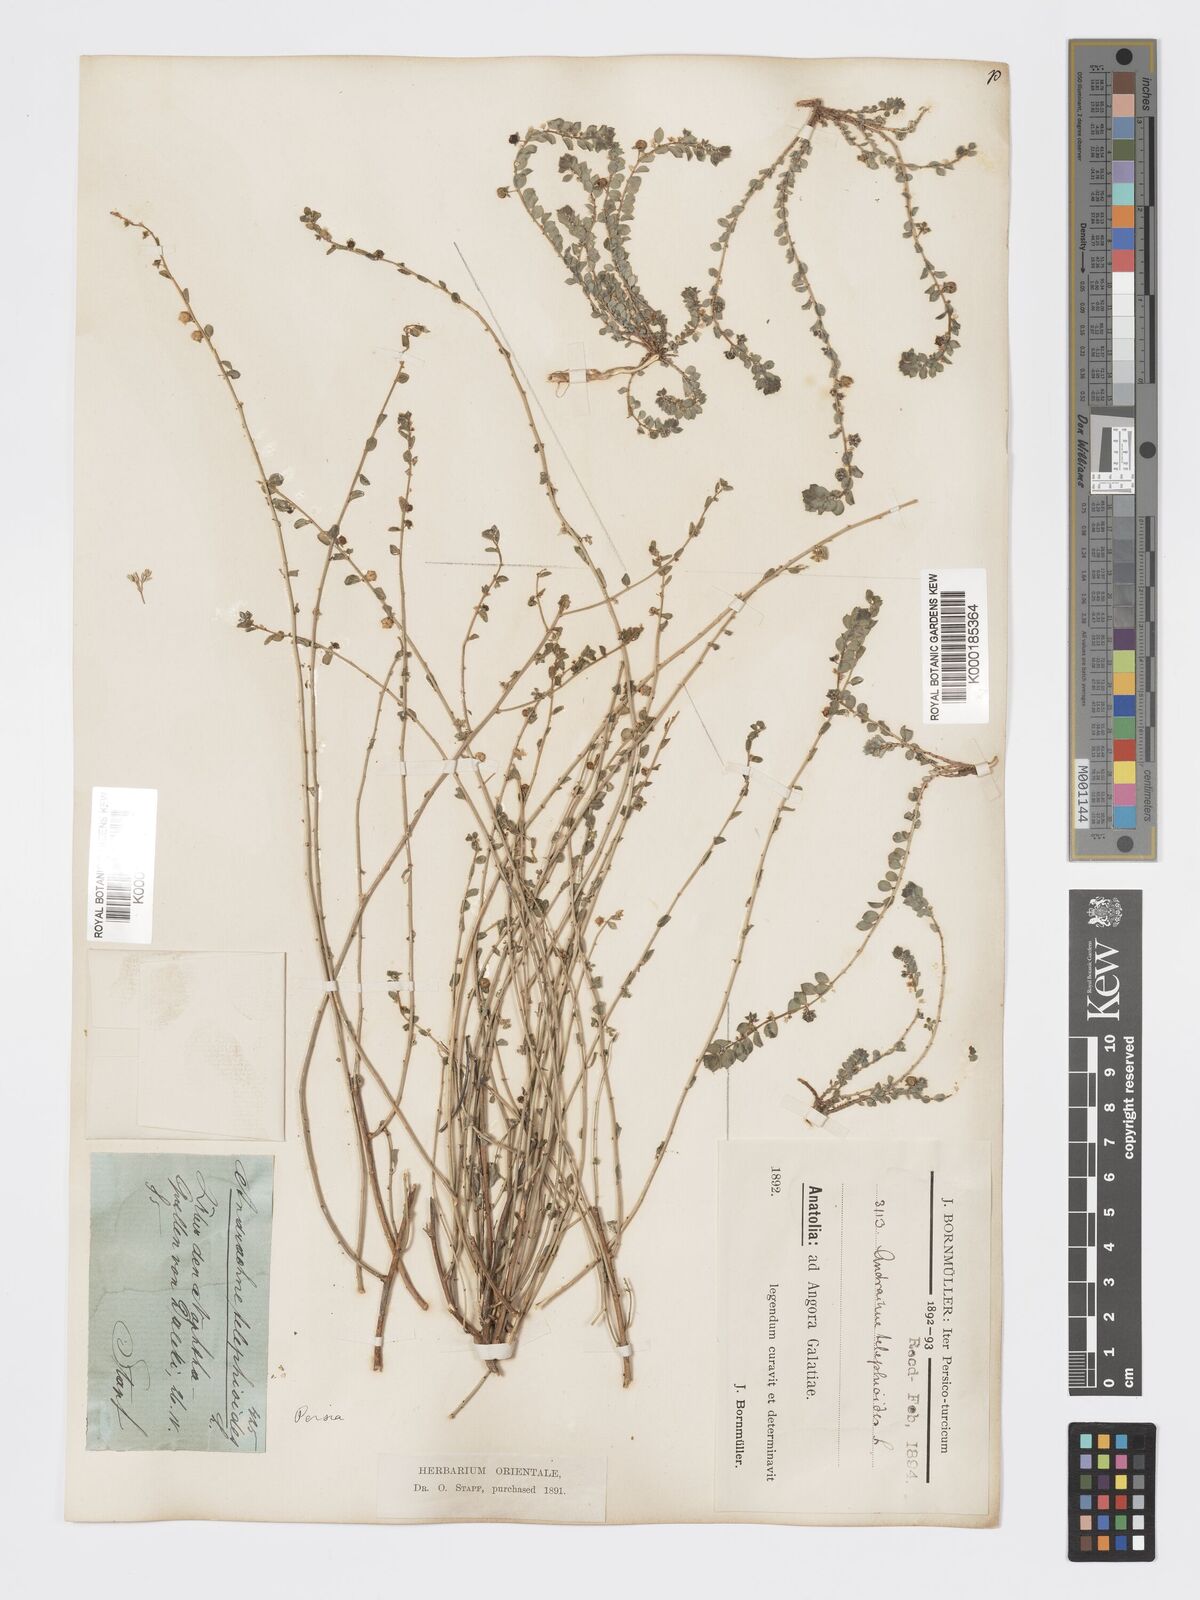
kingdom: Plantae
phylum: Tracheophyta
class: Magnoliopsida
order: Malpighiales
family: Phyllanthaceae
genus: Andrachne
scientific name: Andrachne
